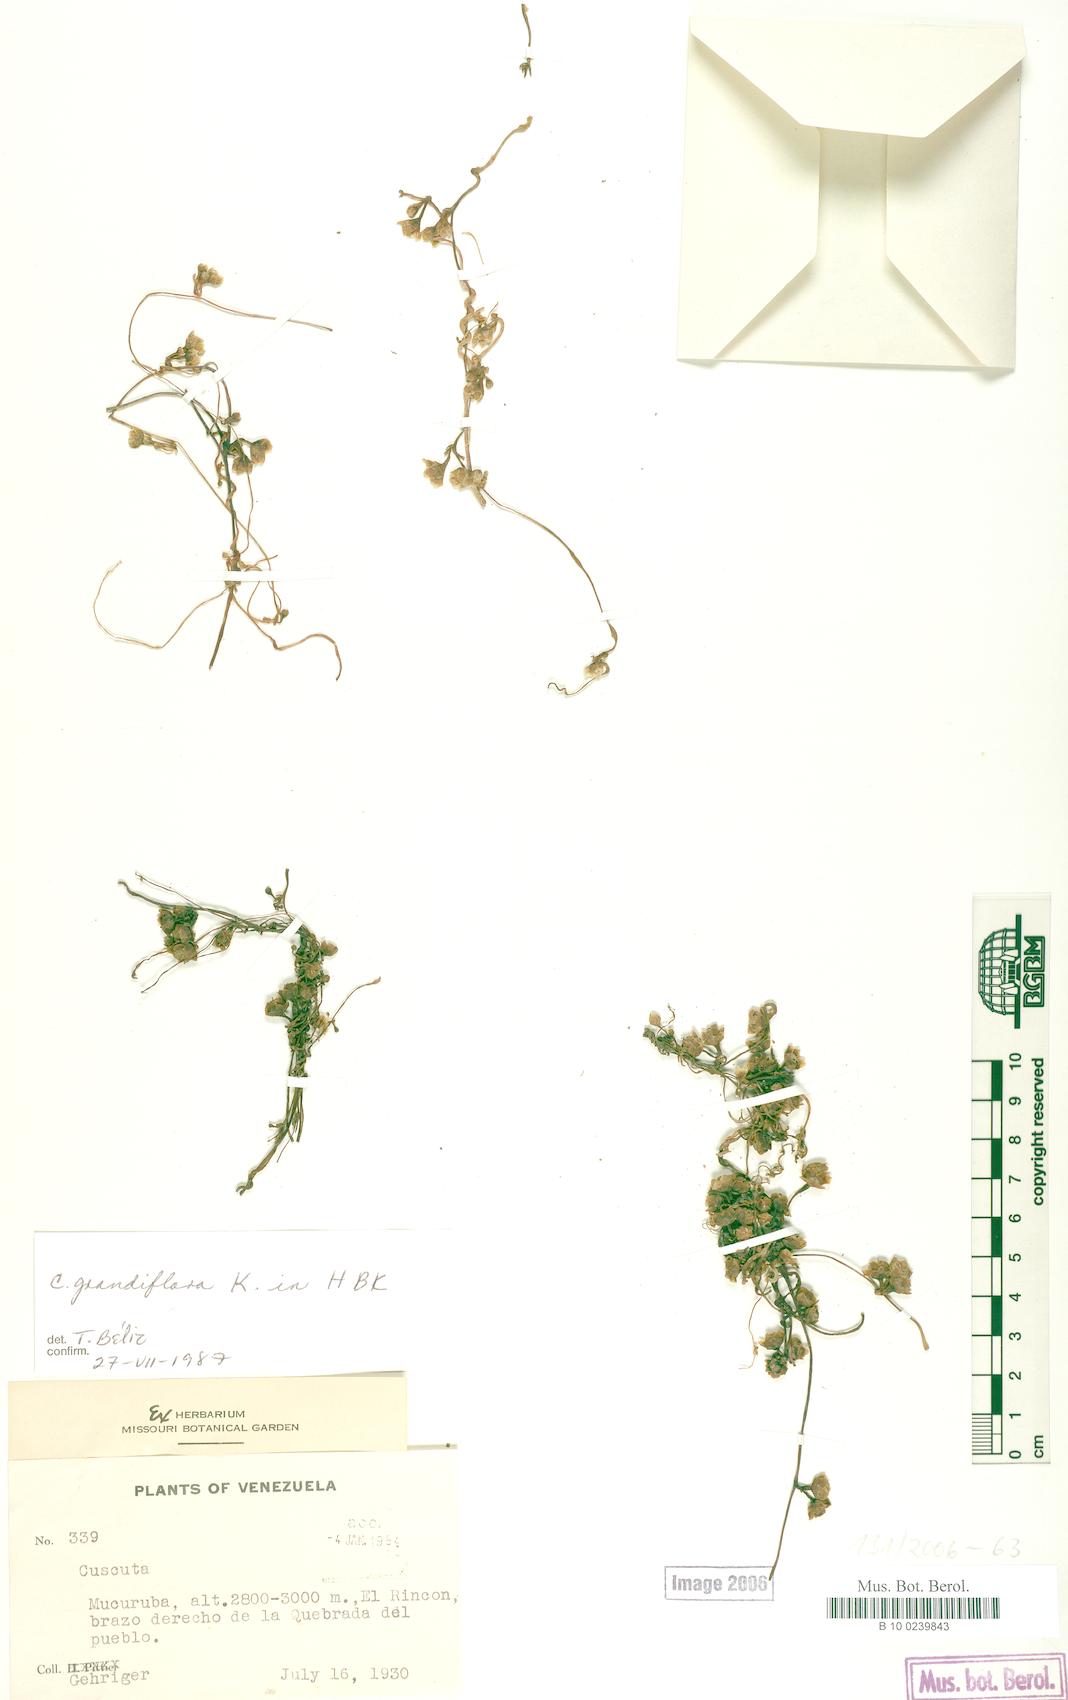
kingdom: Plantae
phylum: Tracheophyta
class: Magnoliopsida
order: Solanales
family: Convolvulaceae
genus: Cuscuta
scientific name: Cuscuta grandiflora
